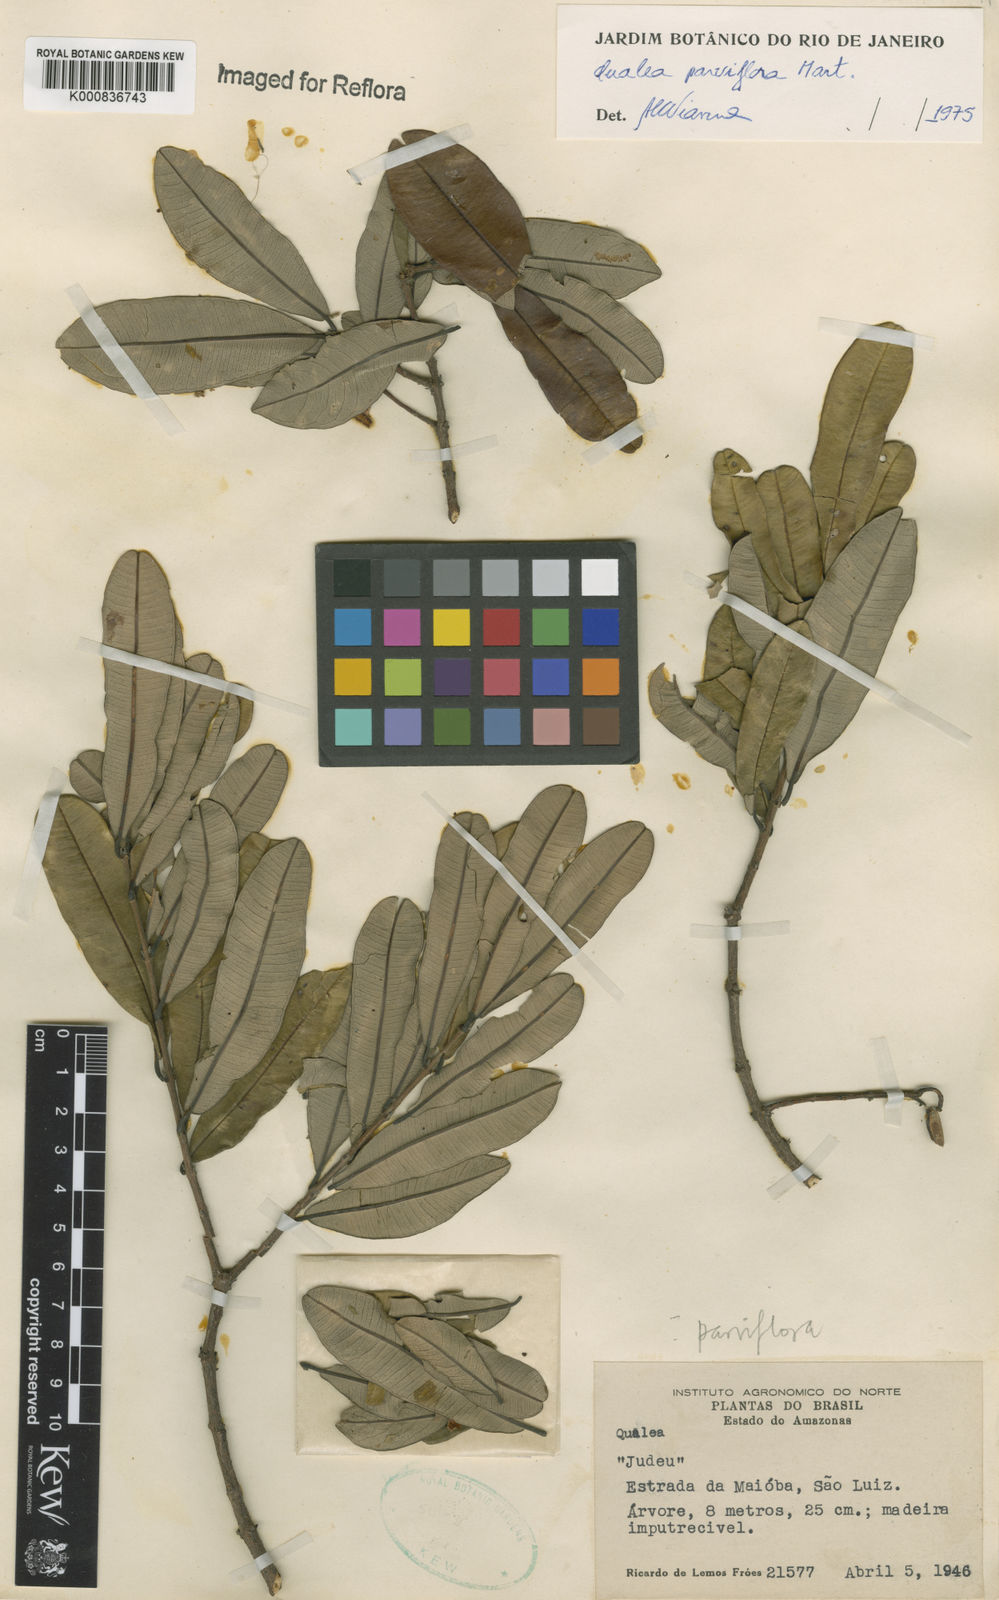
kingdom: Plantae
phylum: Tracheophyta
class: Magnoliopsida
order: Myrtales
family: Vochysiaceae
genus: Qualea
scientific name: Qualea parviflora
